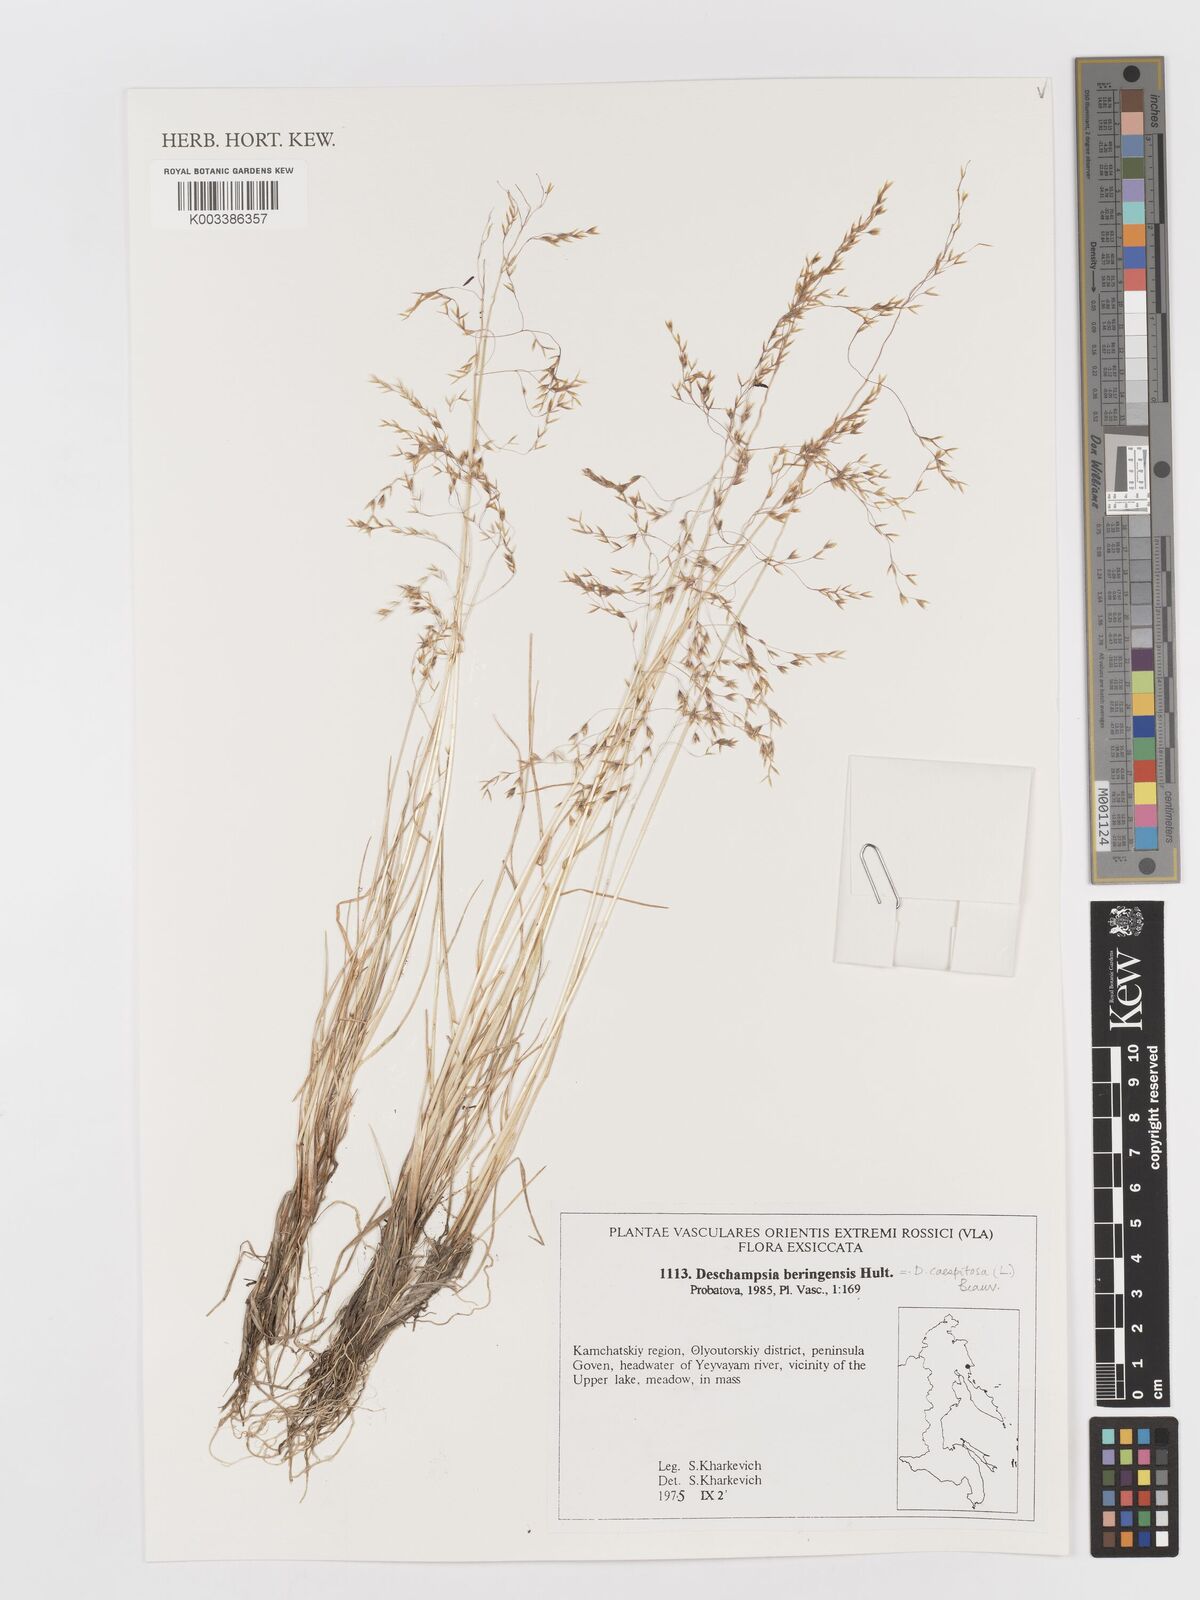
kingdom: Plantae
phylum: Tracheophyta
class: Liliopsida
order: Poales
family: Poaceae
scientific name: Poaceae
